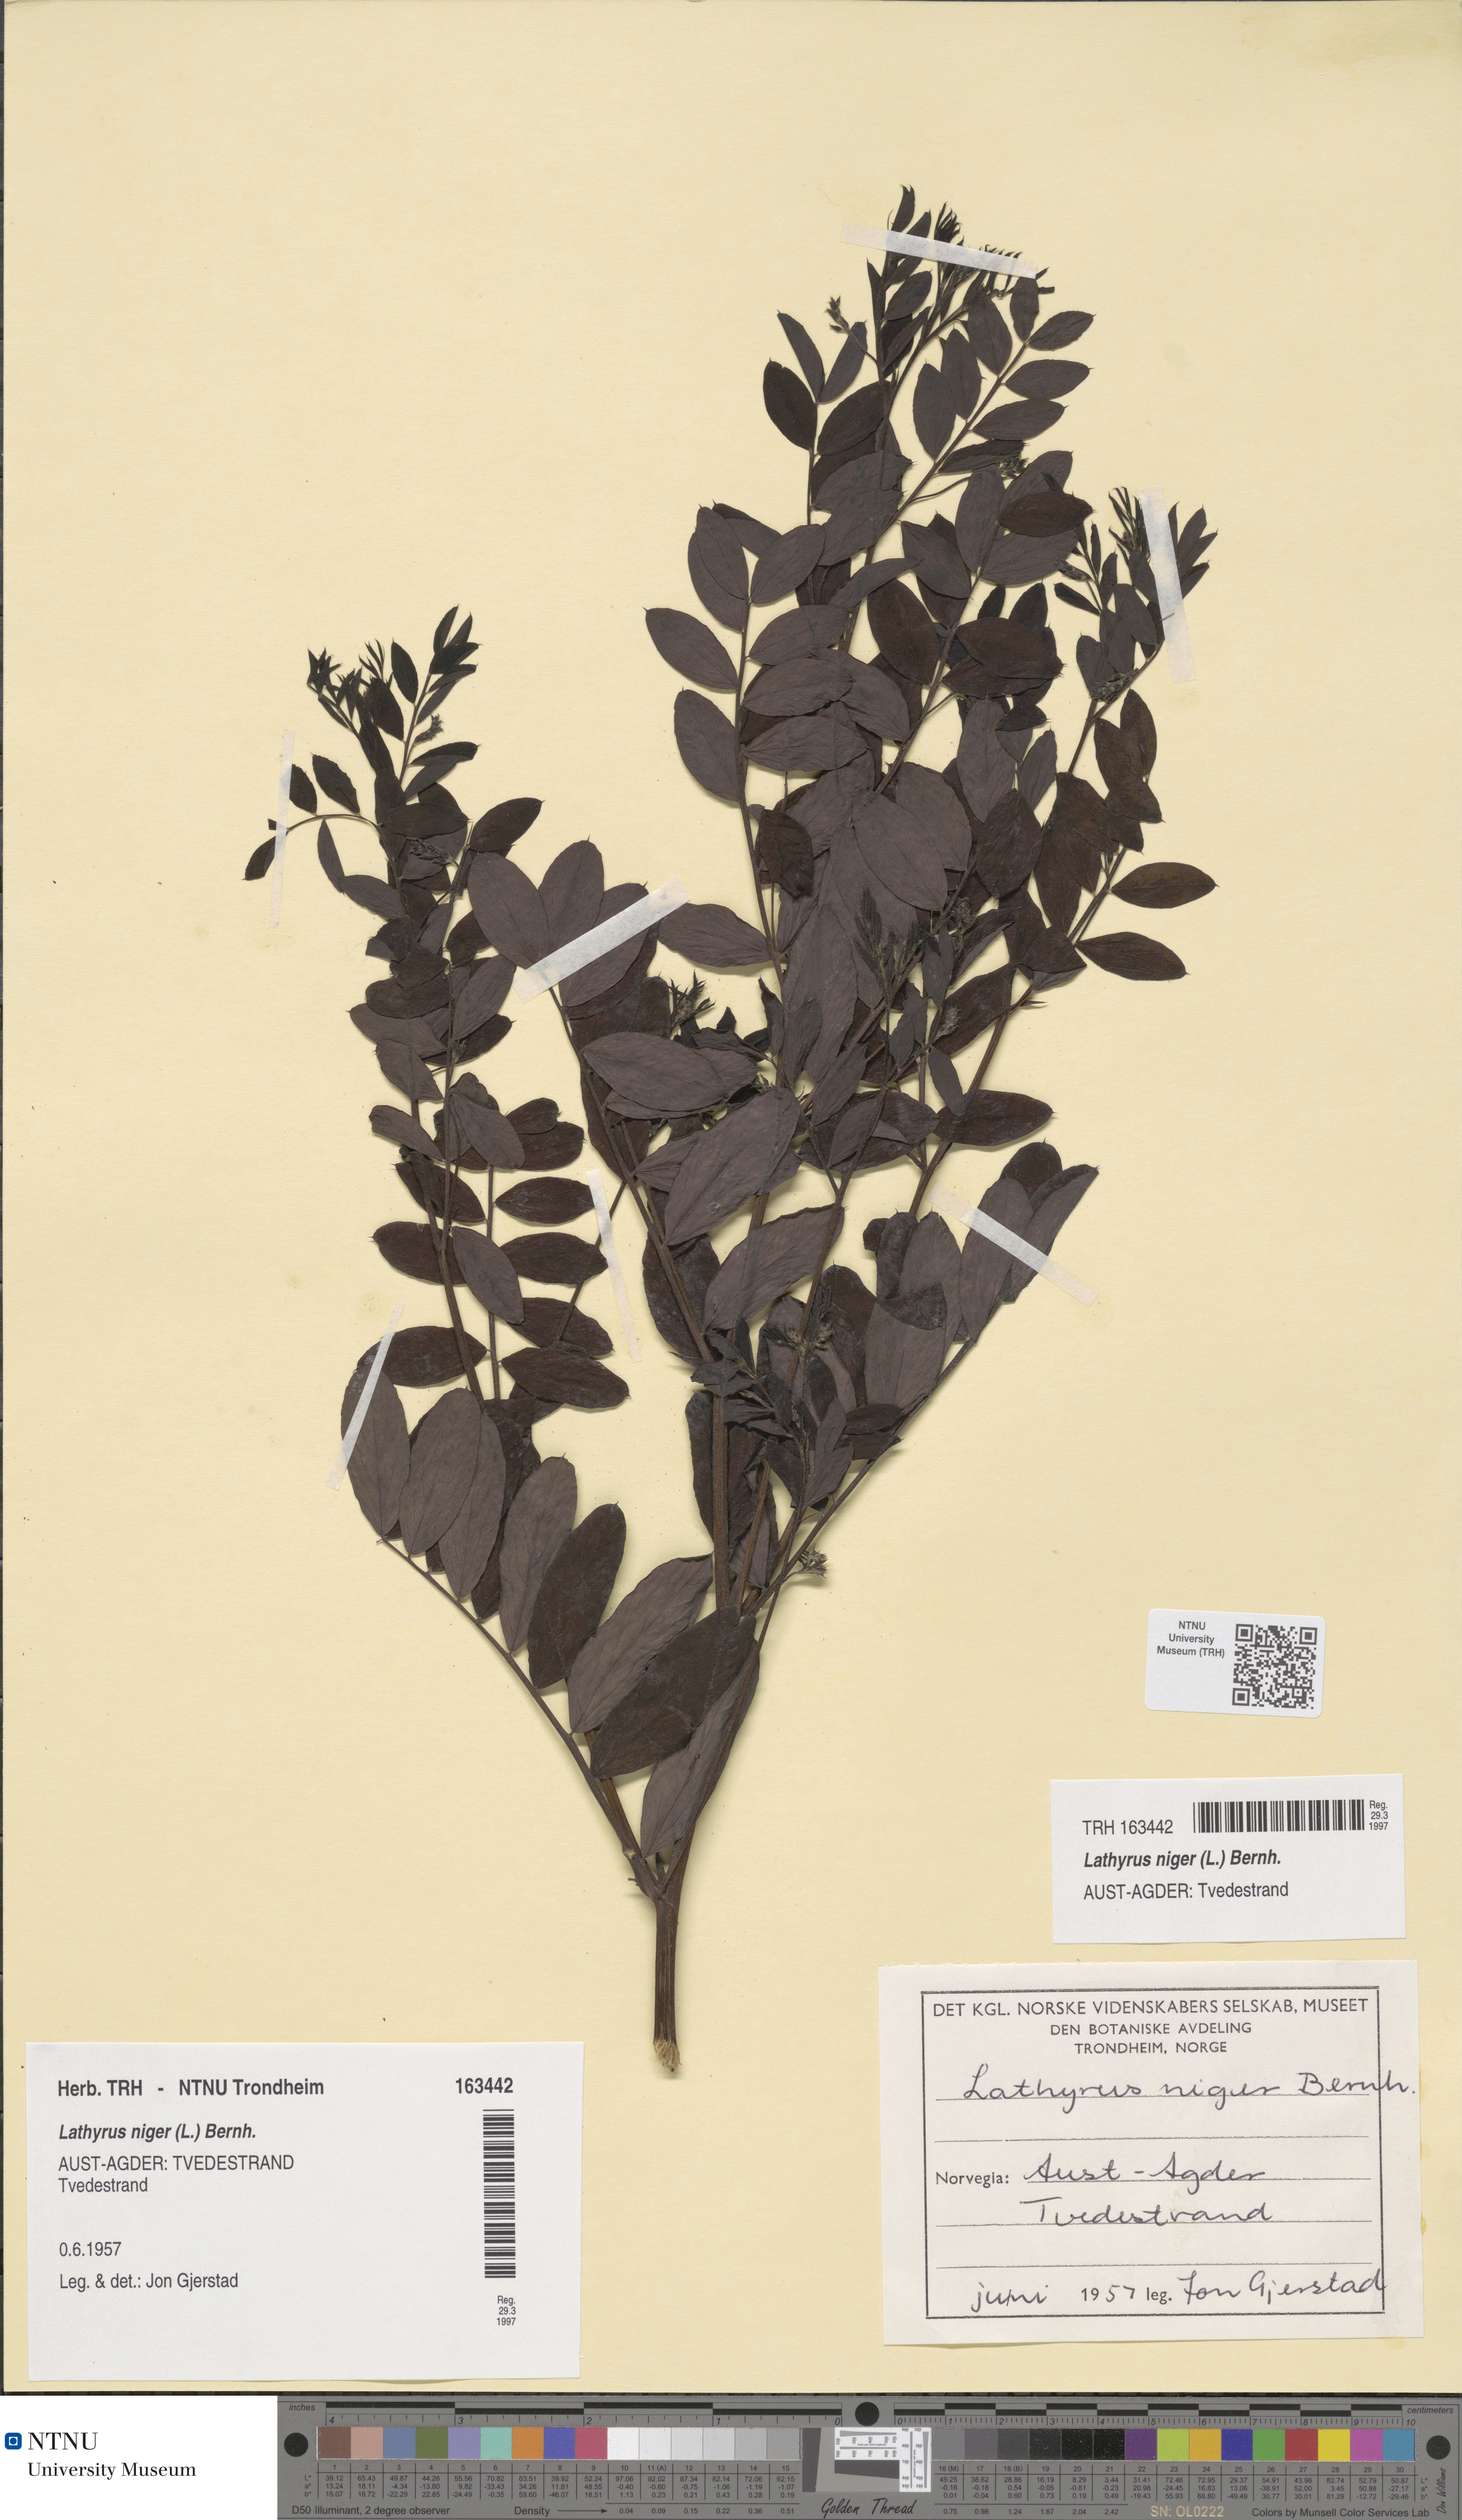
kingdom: Plantae
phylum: Tracheophyta
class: Magnoliopsida
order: Fabales
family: Fabaceae
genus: Lathyrus
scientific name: Lathyrus niger
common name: Black pea
